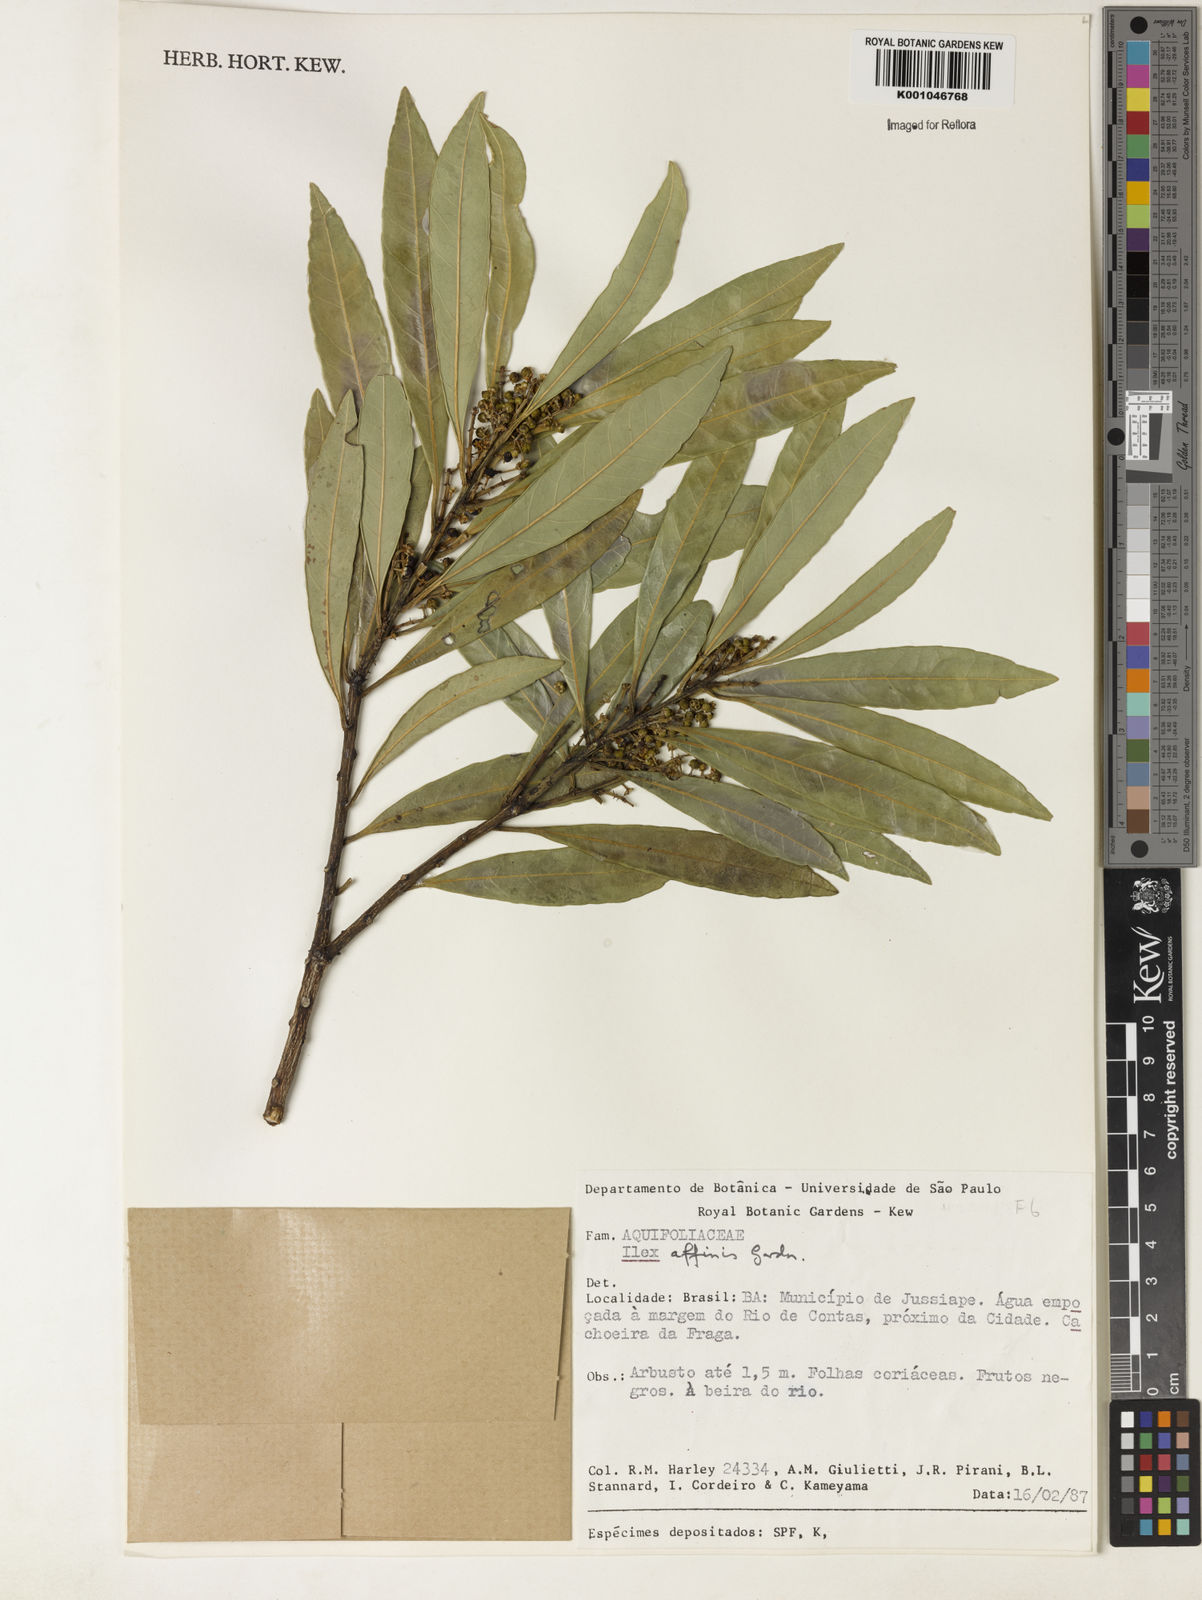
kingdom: Plantae
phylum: Tracheophyta
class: Magnoliopsida
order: Aquifoliales
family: Aquifoliaceae
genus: Ilex
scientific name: Ilex affinis
